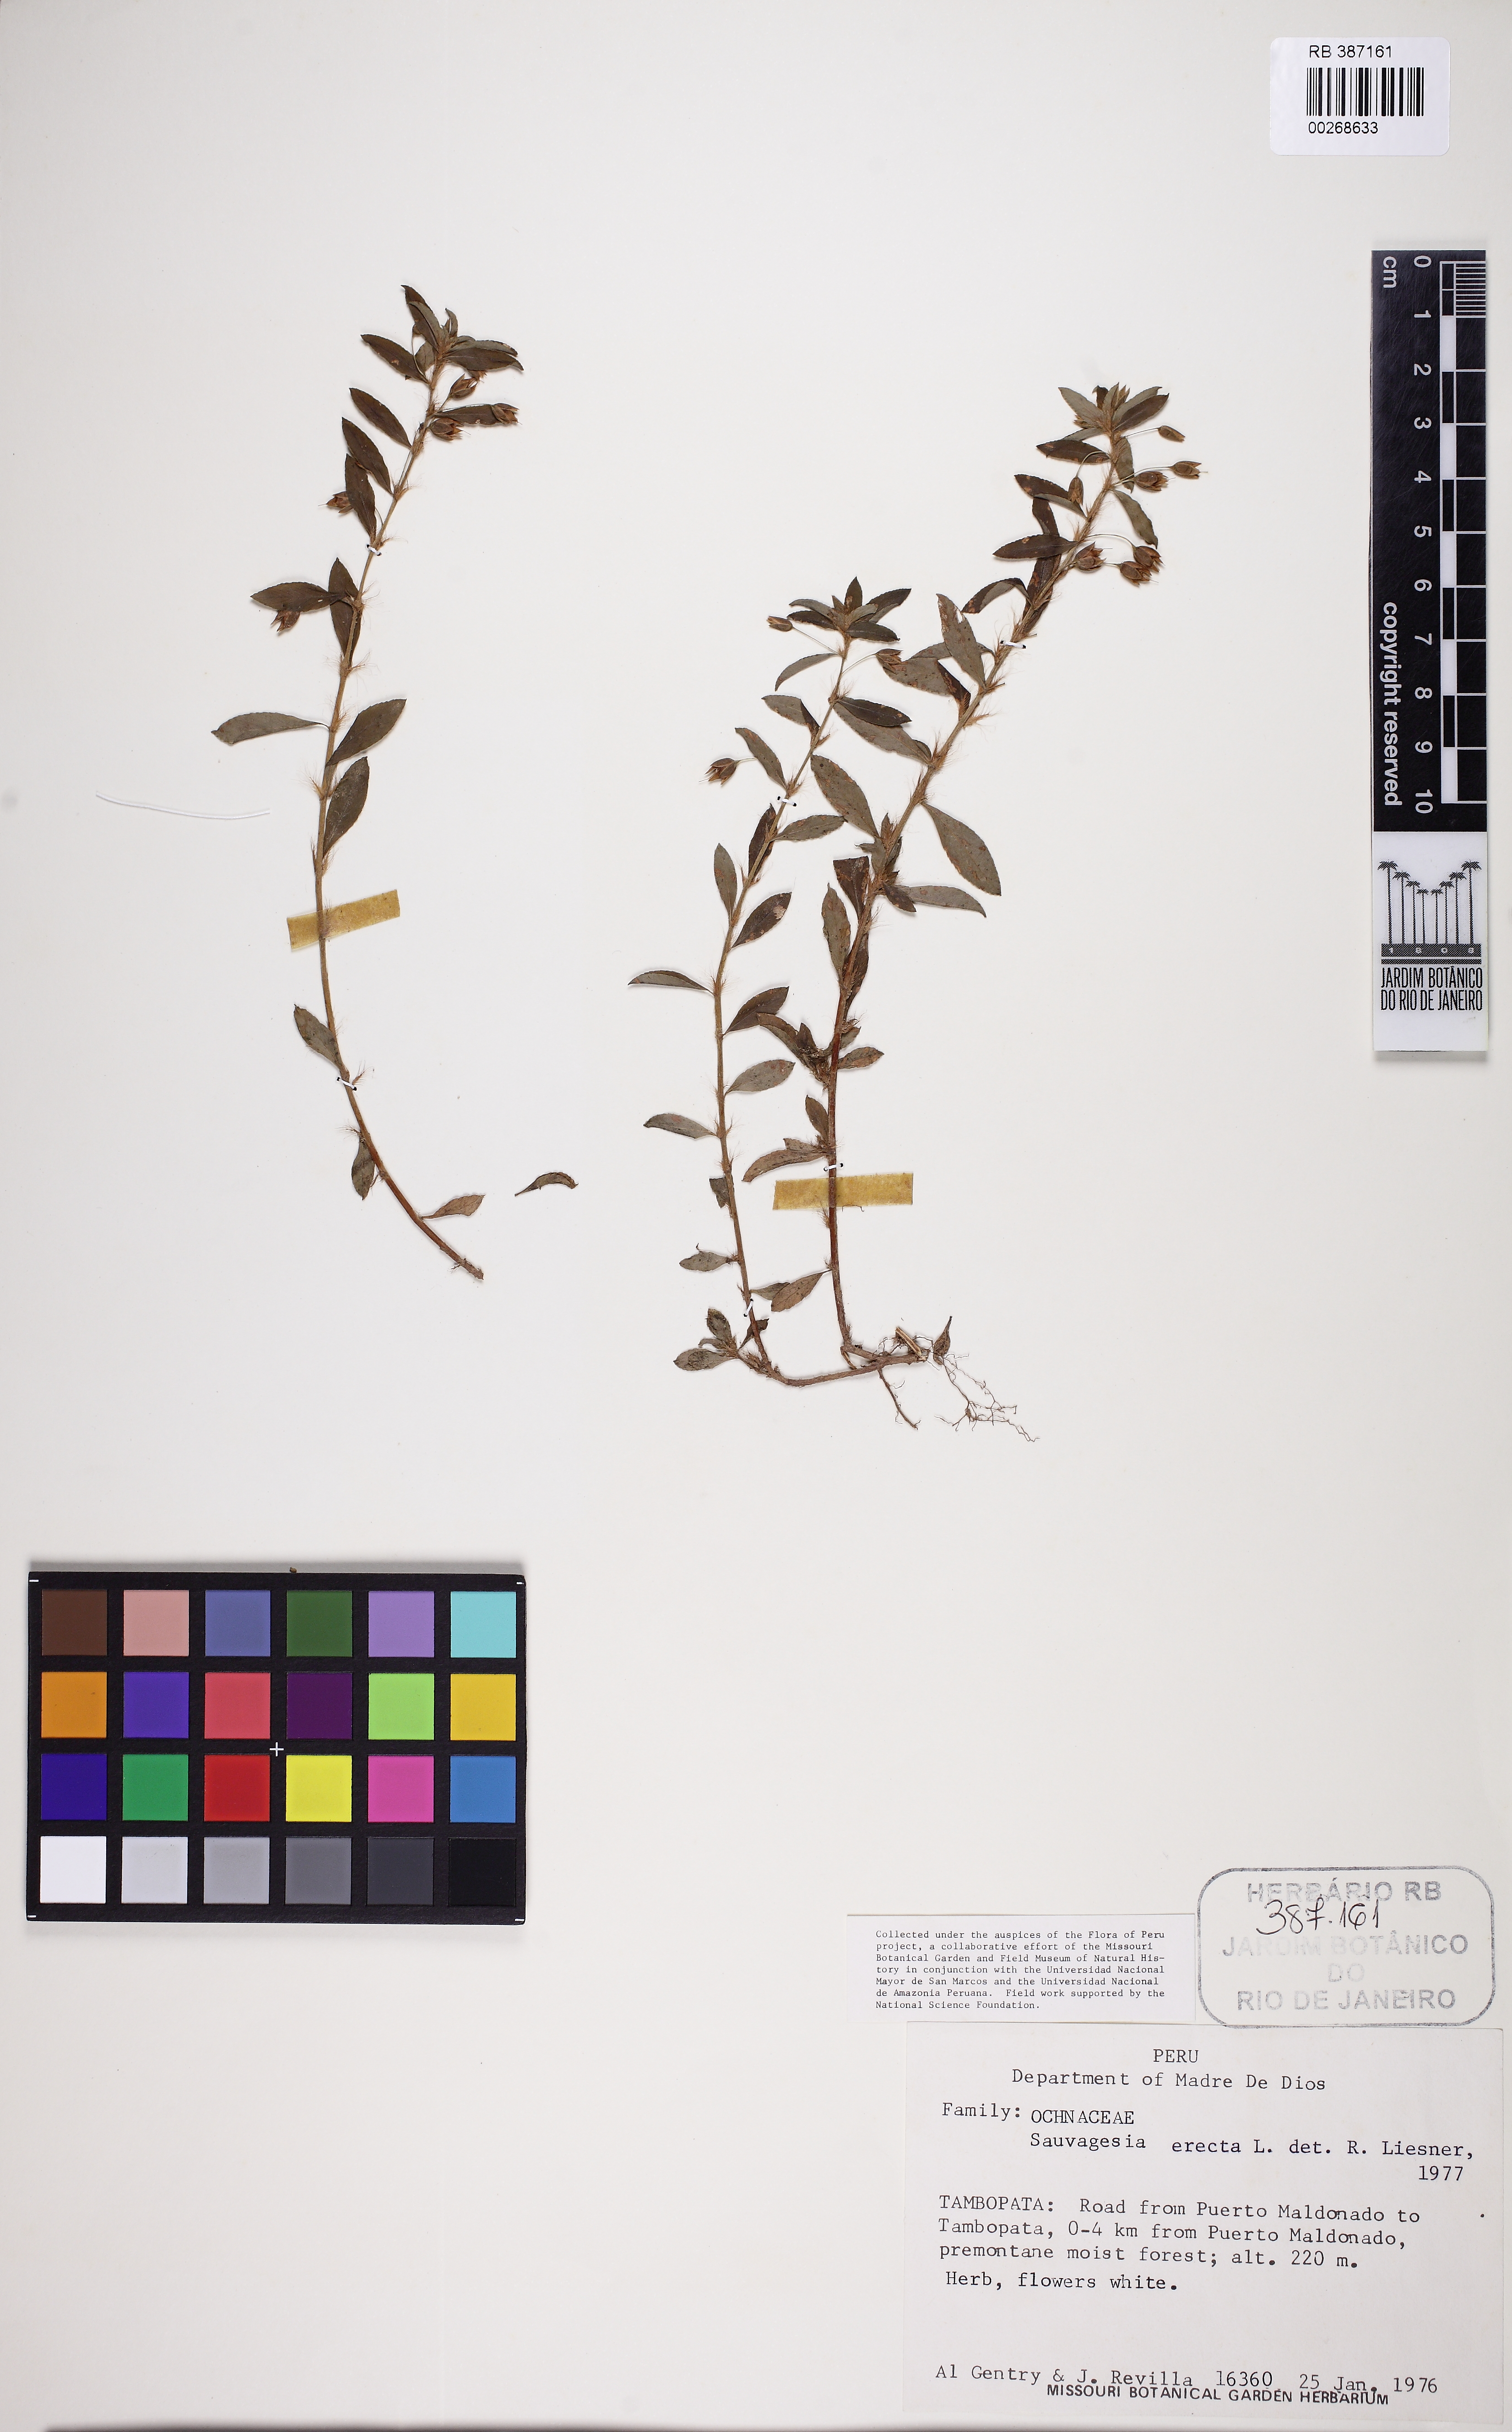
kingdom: Plantae
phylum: Tracheophyta
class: Magnoliopsida
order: Malpighiales
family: Ochnaceae
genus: Sauvagesia
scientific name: Sauvagesia erecta
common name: Creole tea
